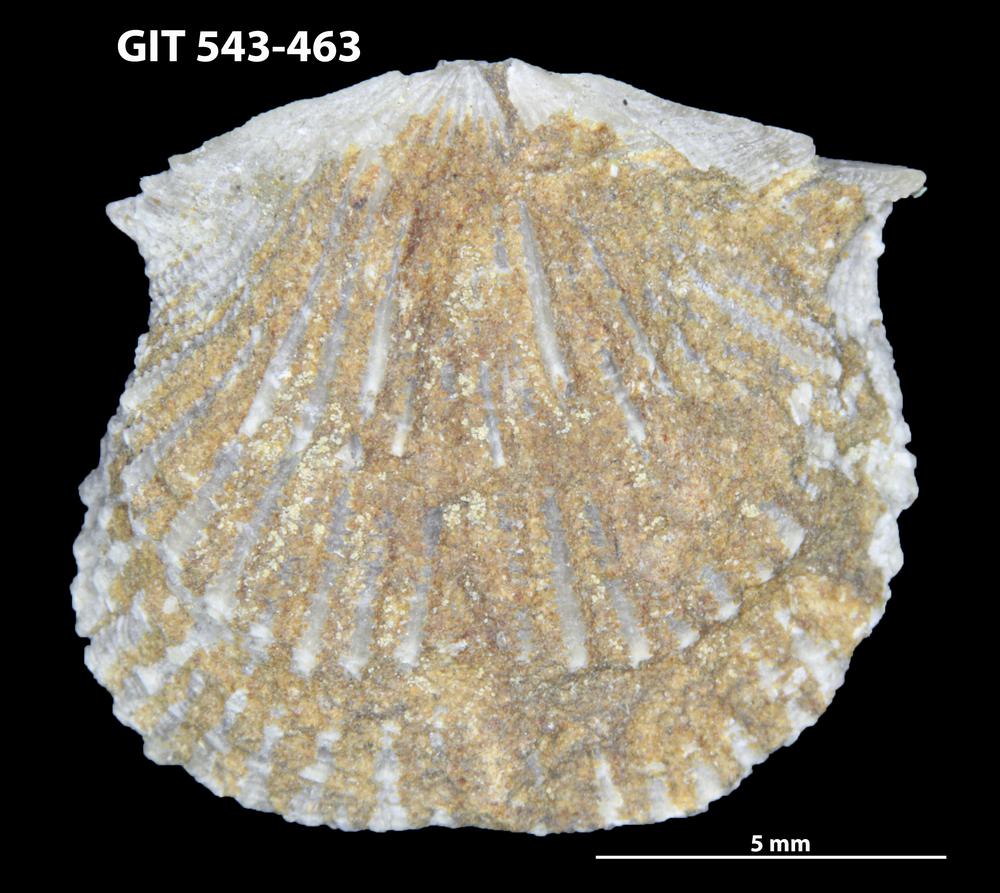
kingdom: Animalia
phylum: Brachiopoda
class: Rhynchonellata
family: Clitambonitidae
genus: Vellamo
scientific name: Vellamo
